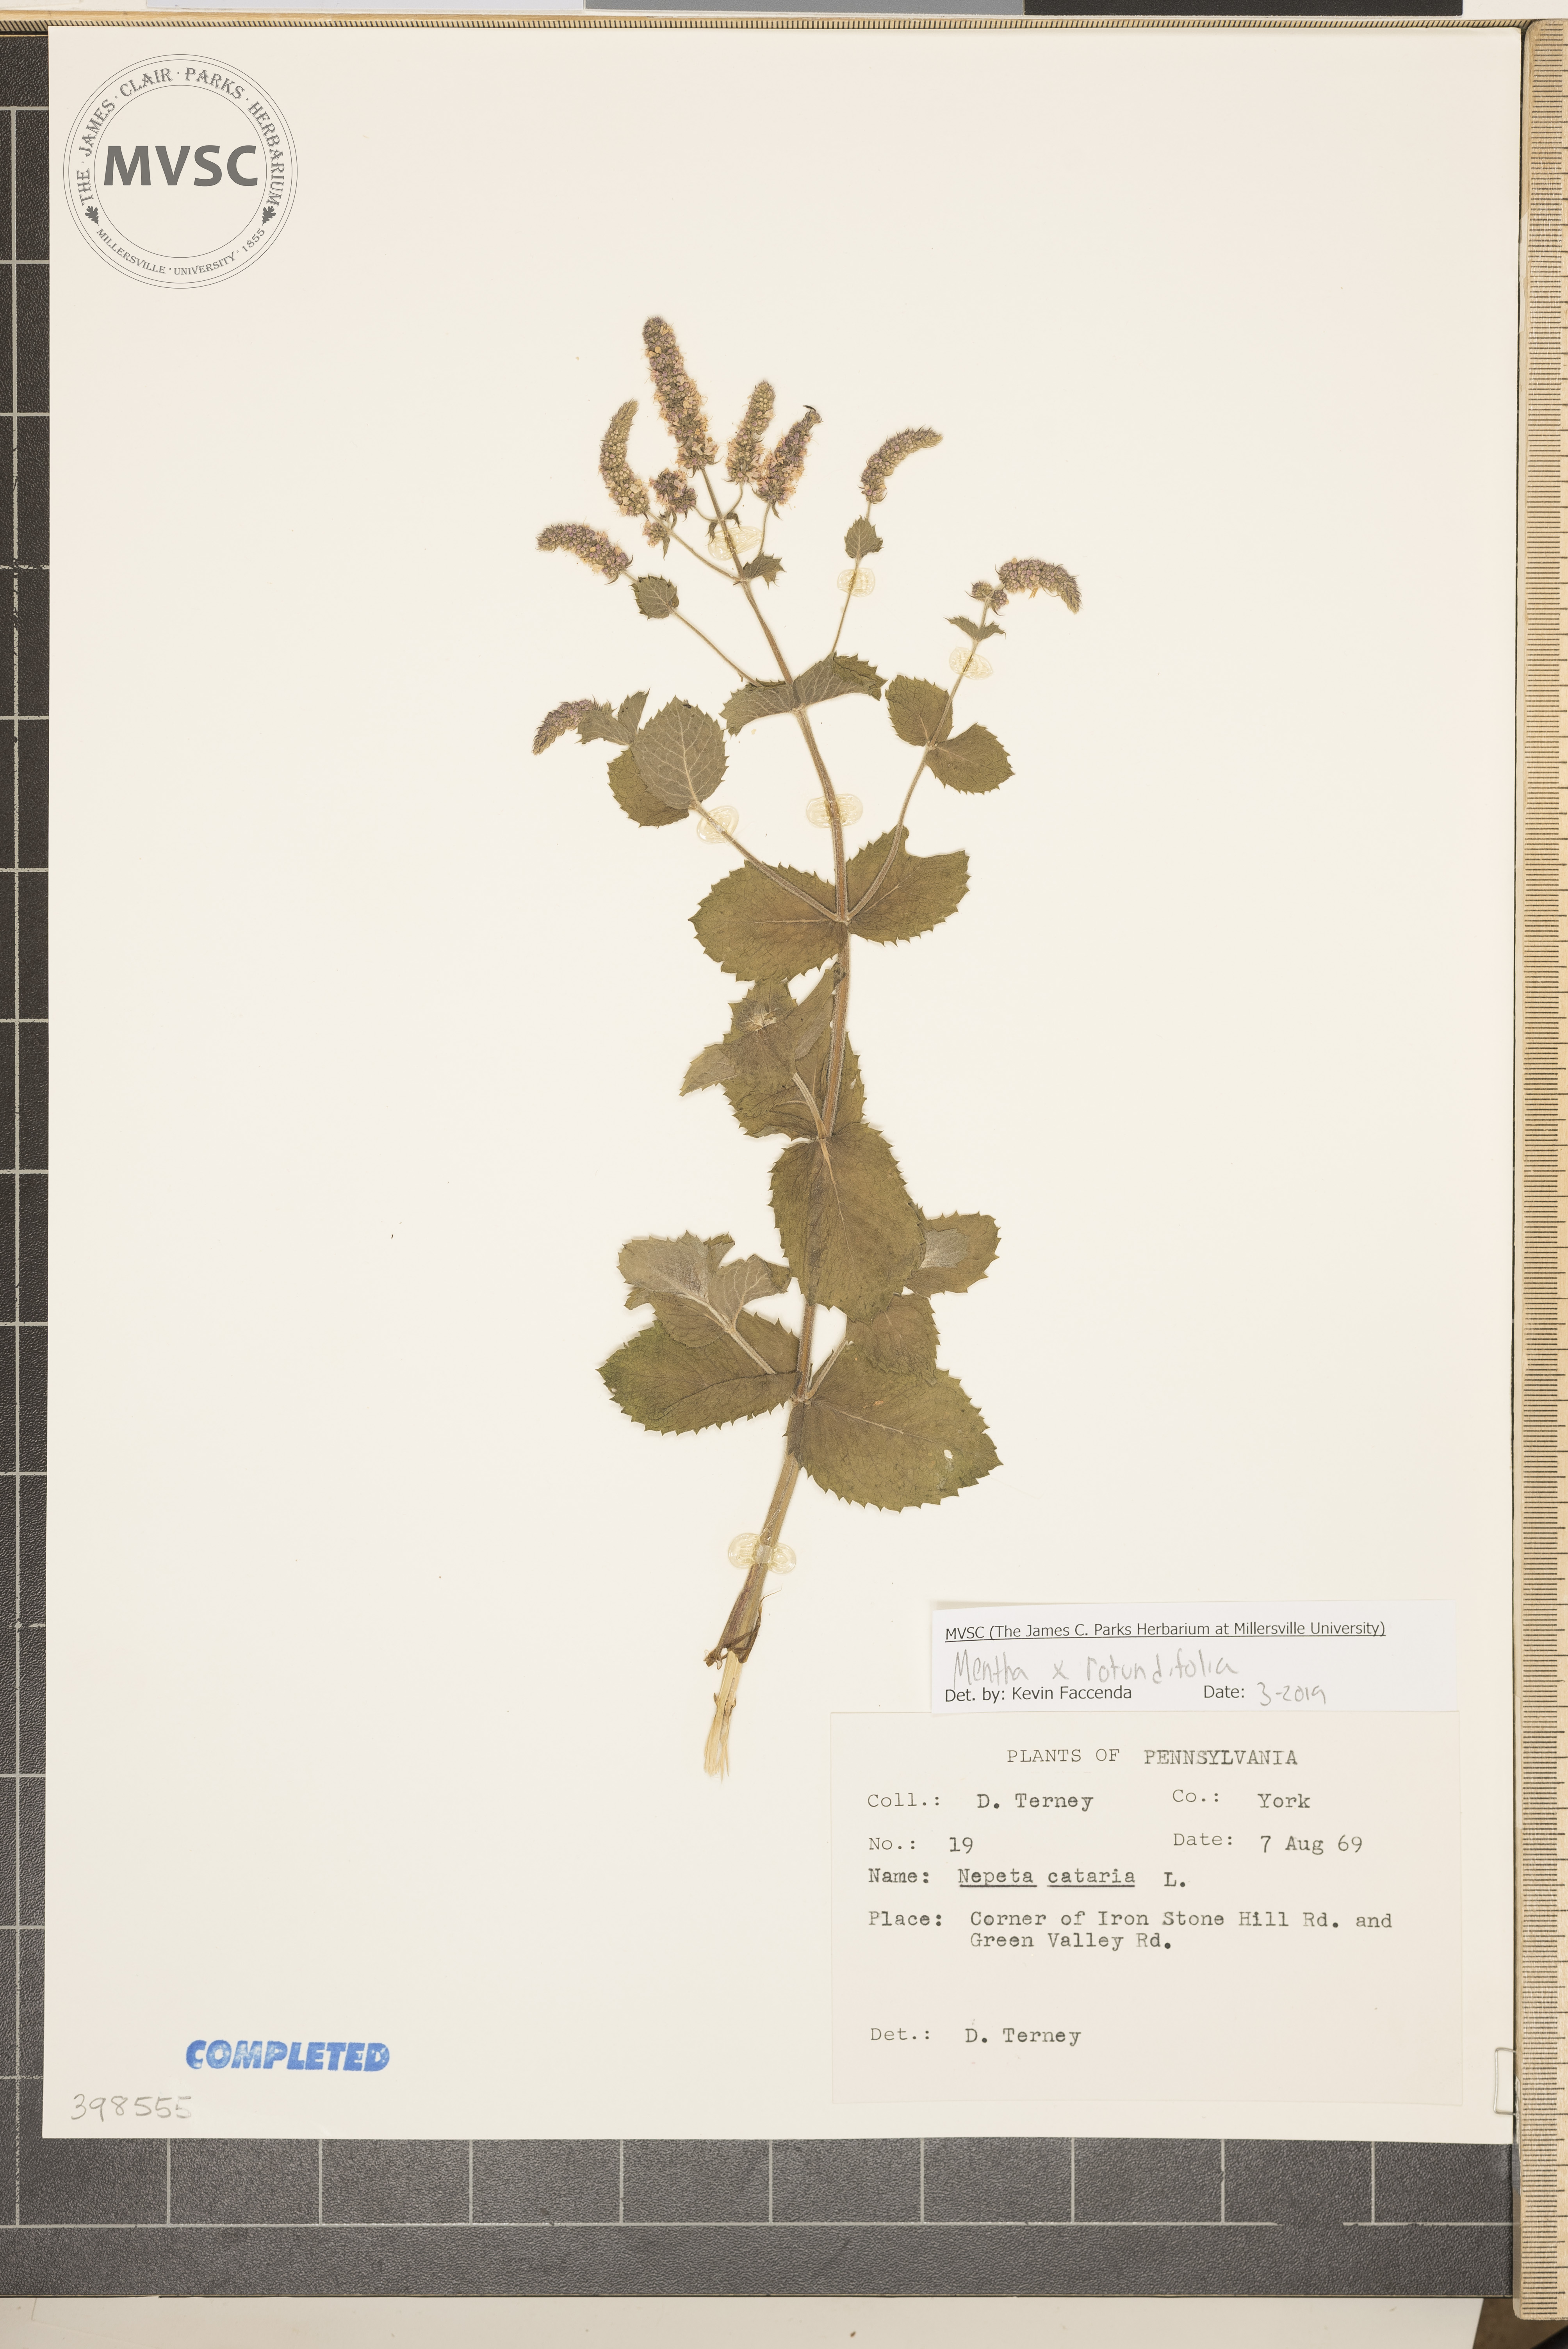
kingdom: Plantae
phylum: Tracheophyta
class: Magnoliopsida
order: Lamiales
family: Lamiaceae
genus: Mentha
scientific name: Mentha rotundifolia
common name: Bigleaf mint
